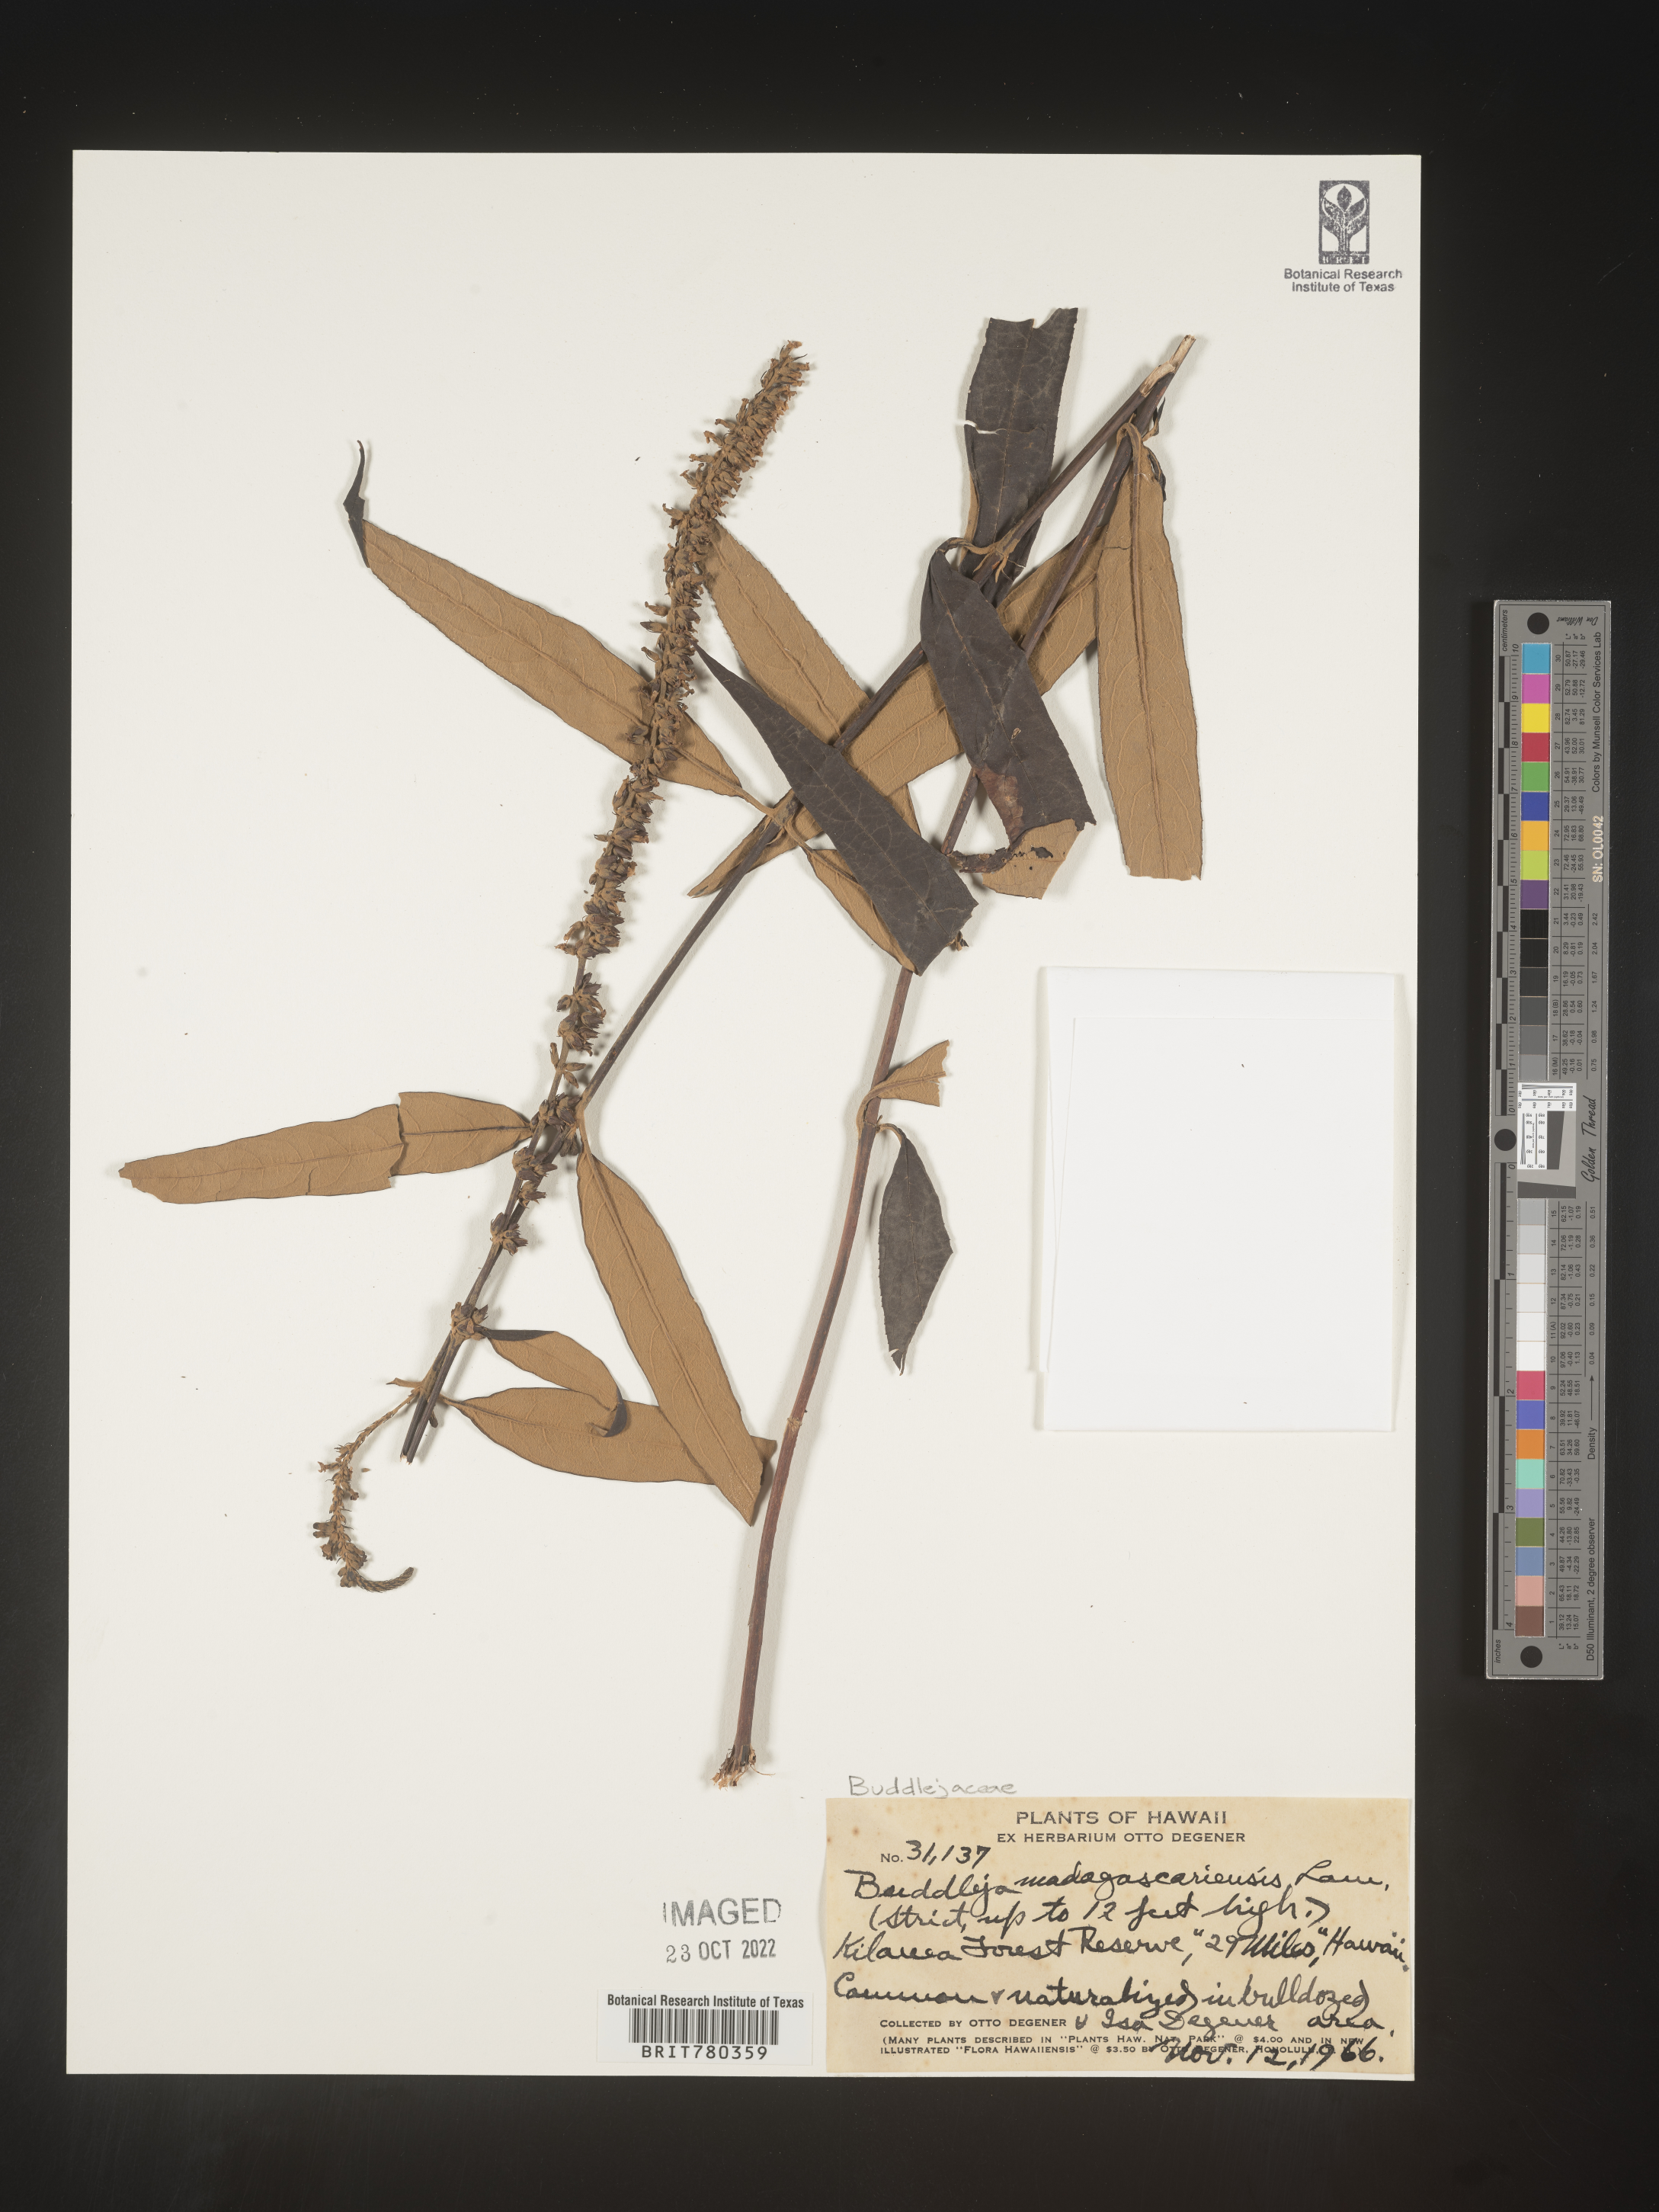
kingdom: Plantae
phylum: Tracheophyta
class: Magnoliopsida
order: Lamiales
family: Scrophulariaceae
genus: Buddleja
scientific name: Buddleja
